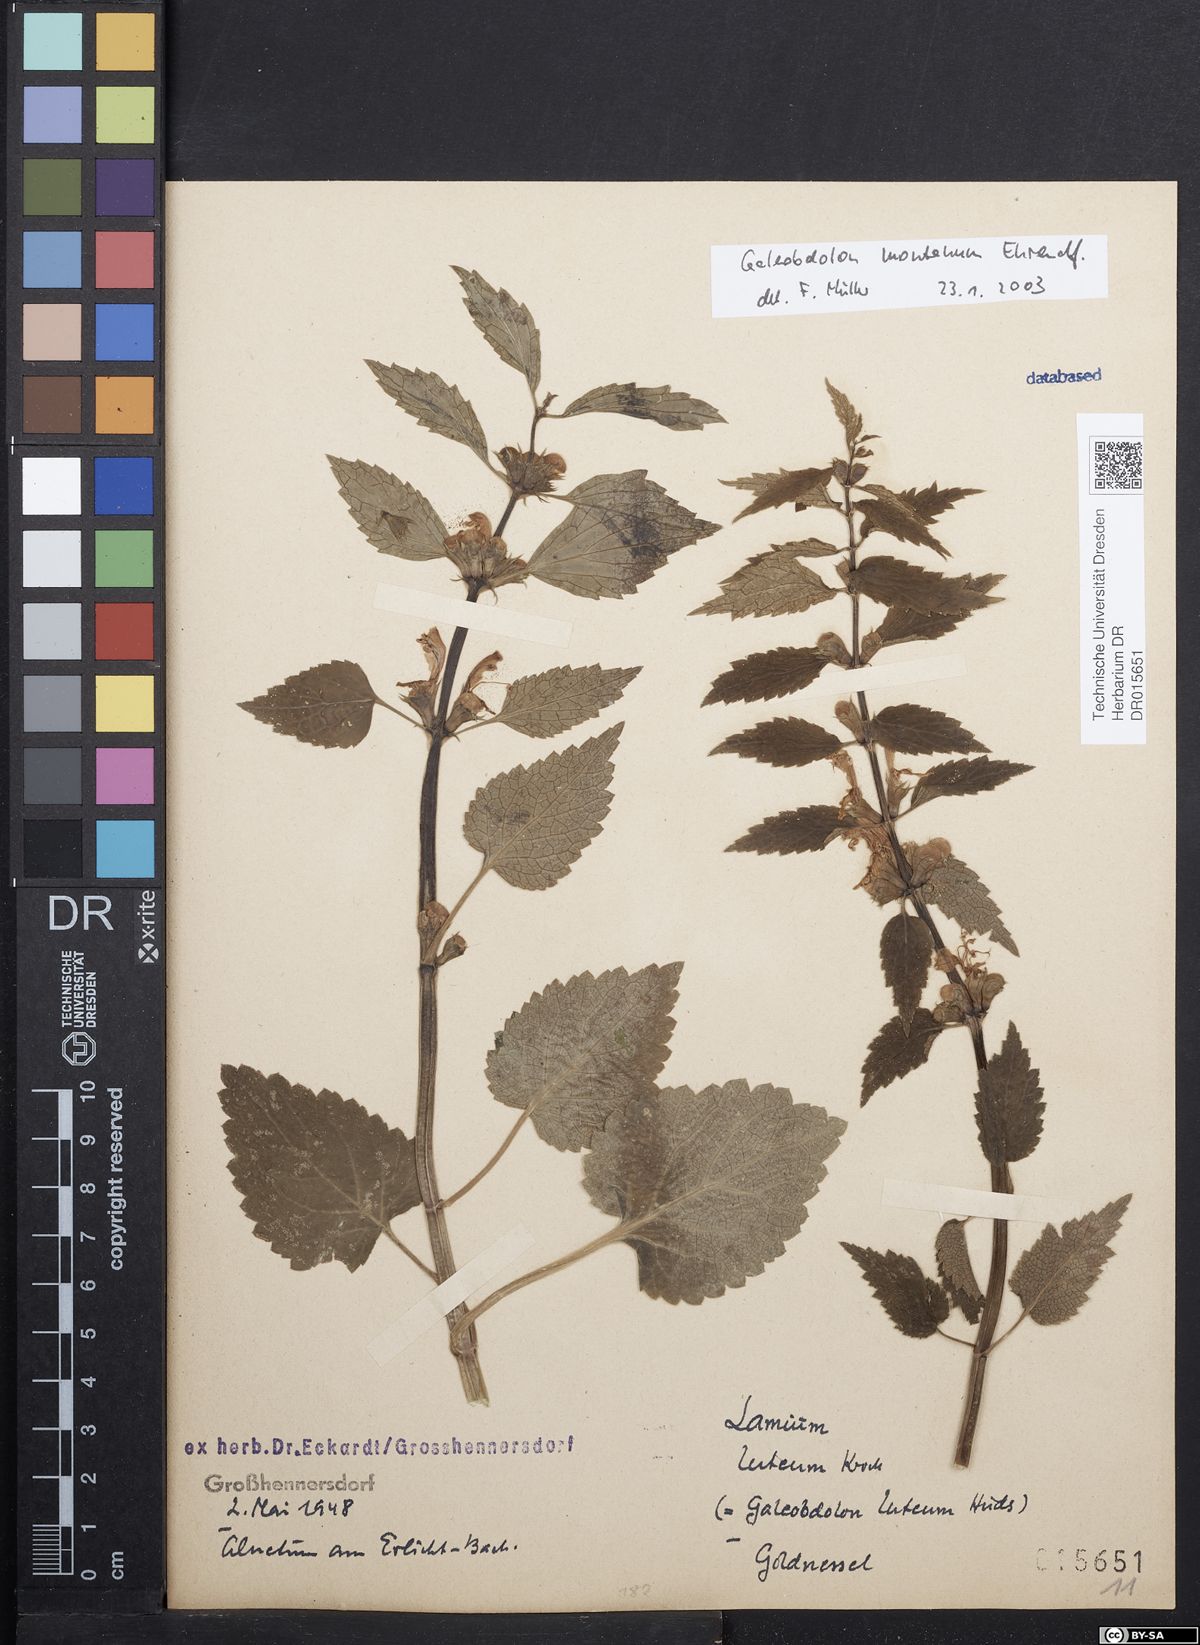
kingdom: Plantae
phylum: Tracheophyta
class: Magnoliopsida
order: Lamiales
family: Lamiaceae
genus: Lamium
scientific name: Lamium galeobdolon
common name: Yellow archangel
